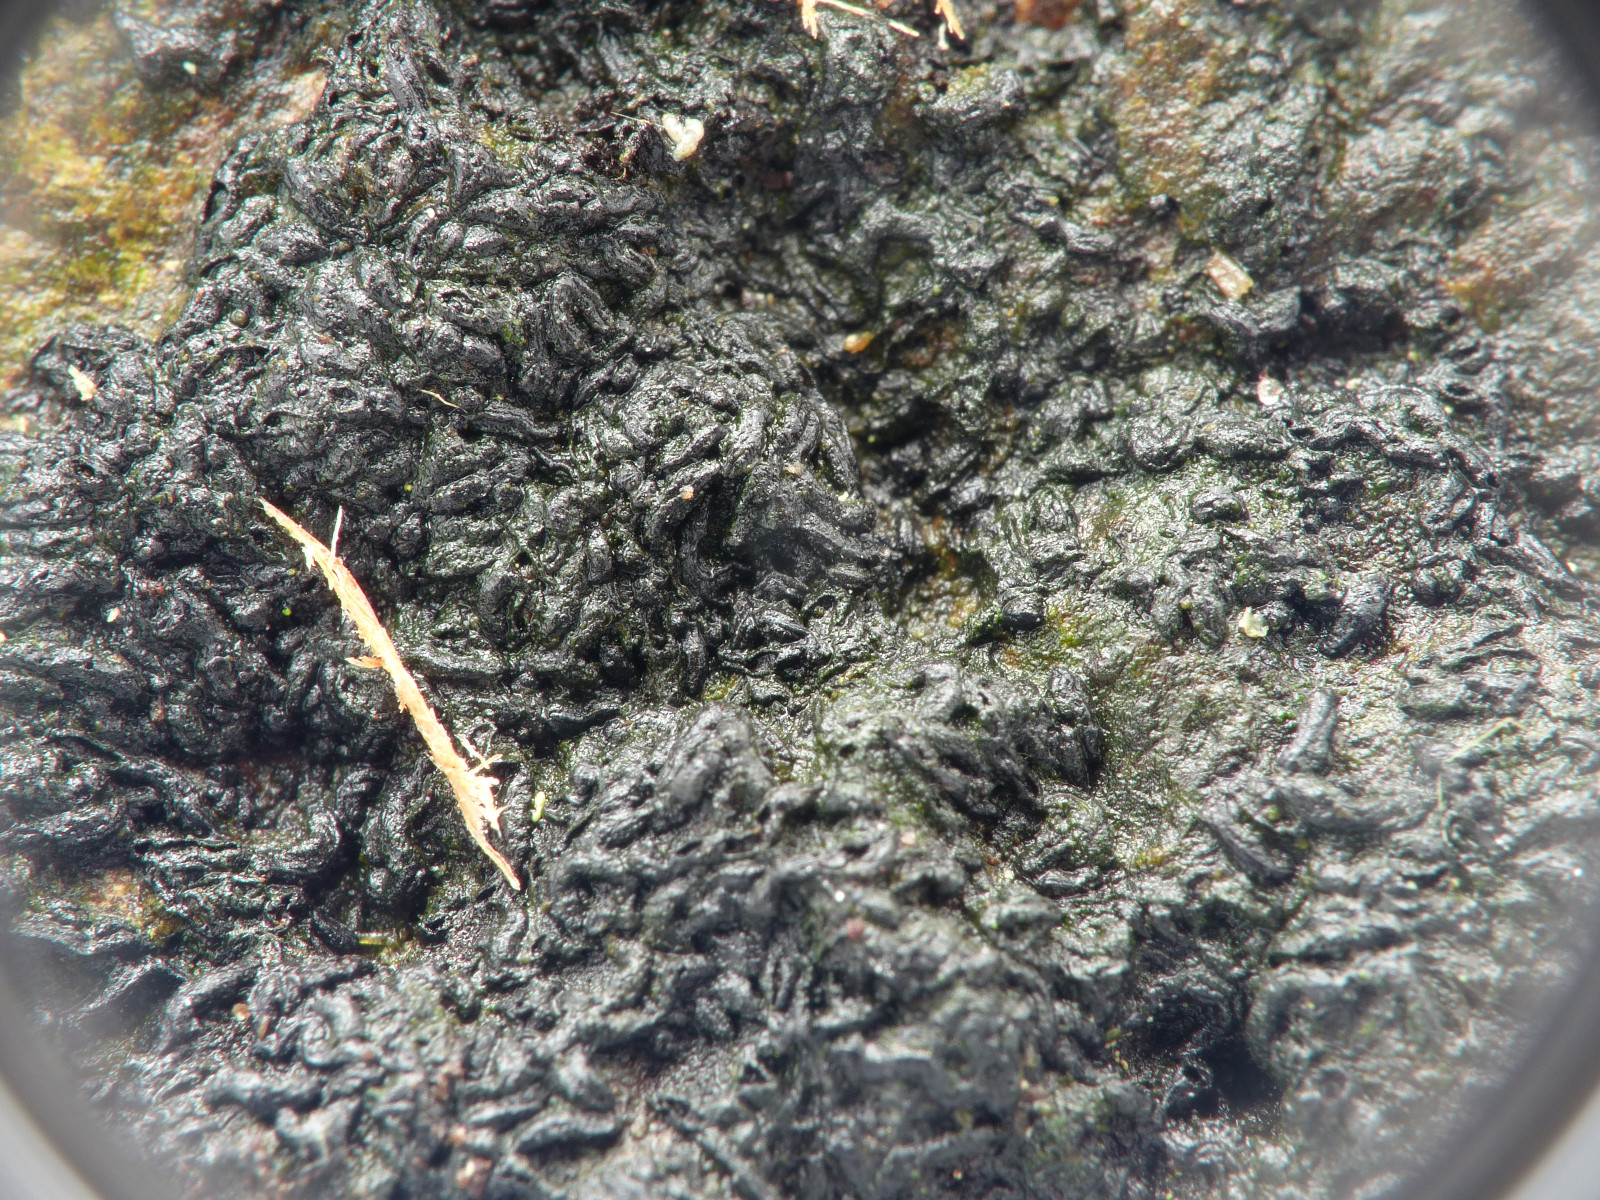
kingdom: Fungi
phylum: Ascomycota
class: Dothideomycetes
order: Mytilinidiales
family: Gloniaceae
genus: Glonium
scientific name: Glonium graphicum
